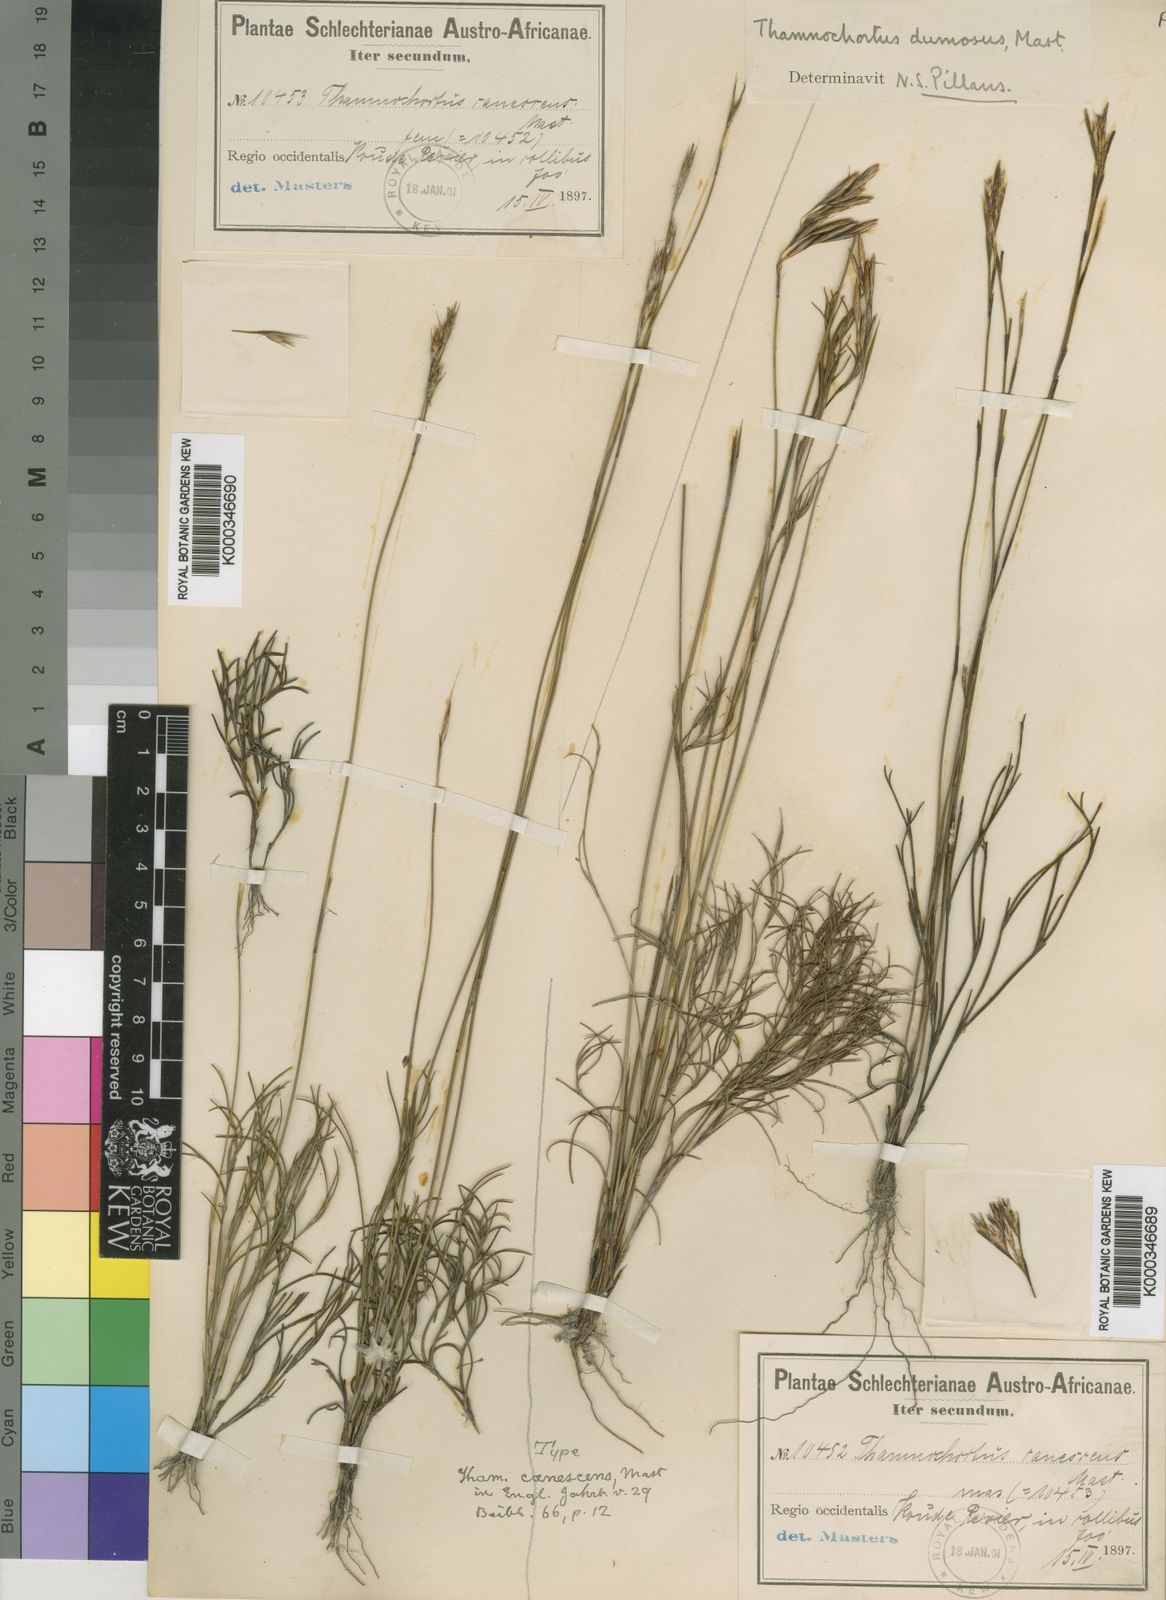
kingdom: Plantae
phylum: Tracheophyta
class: Liliopsida
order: Poales
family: Restionaceae
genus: Thamnochortus
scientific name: Thamnochortus dumosus
